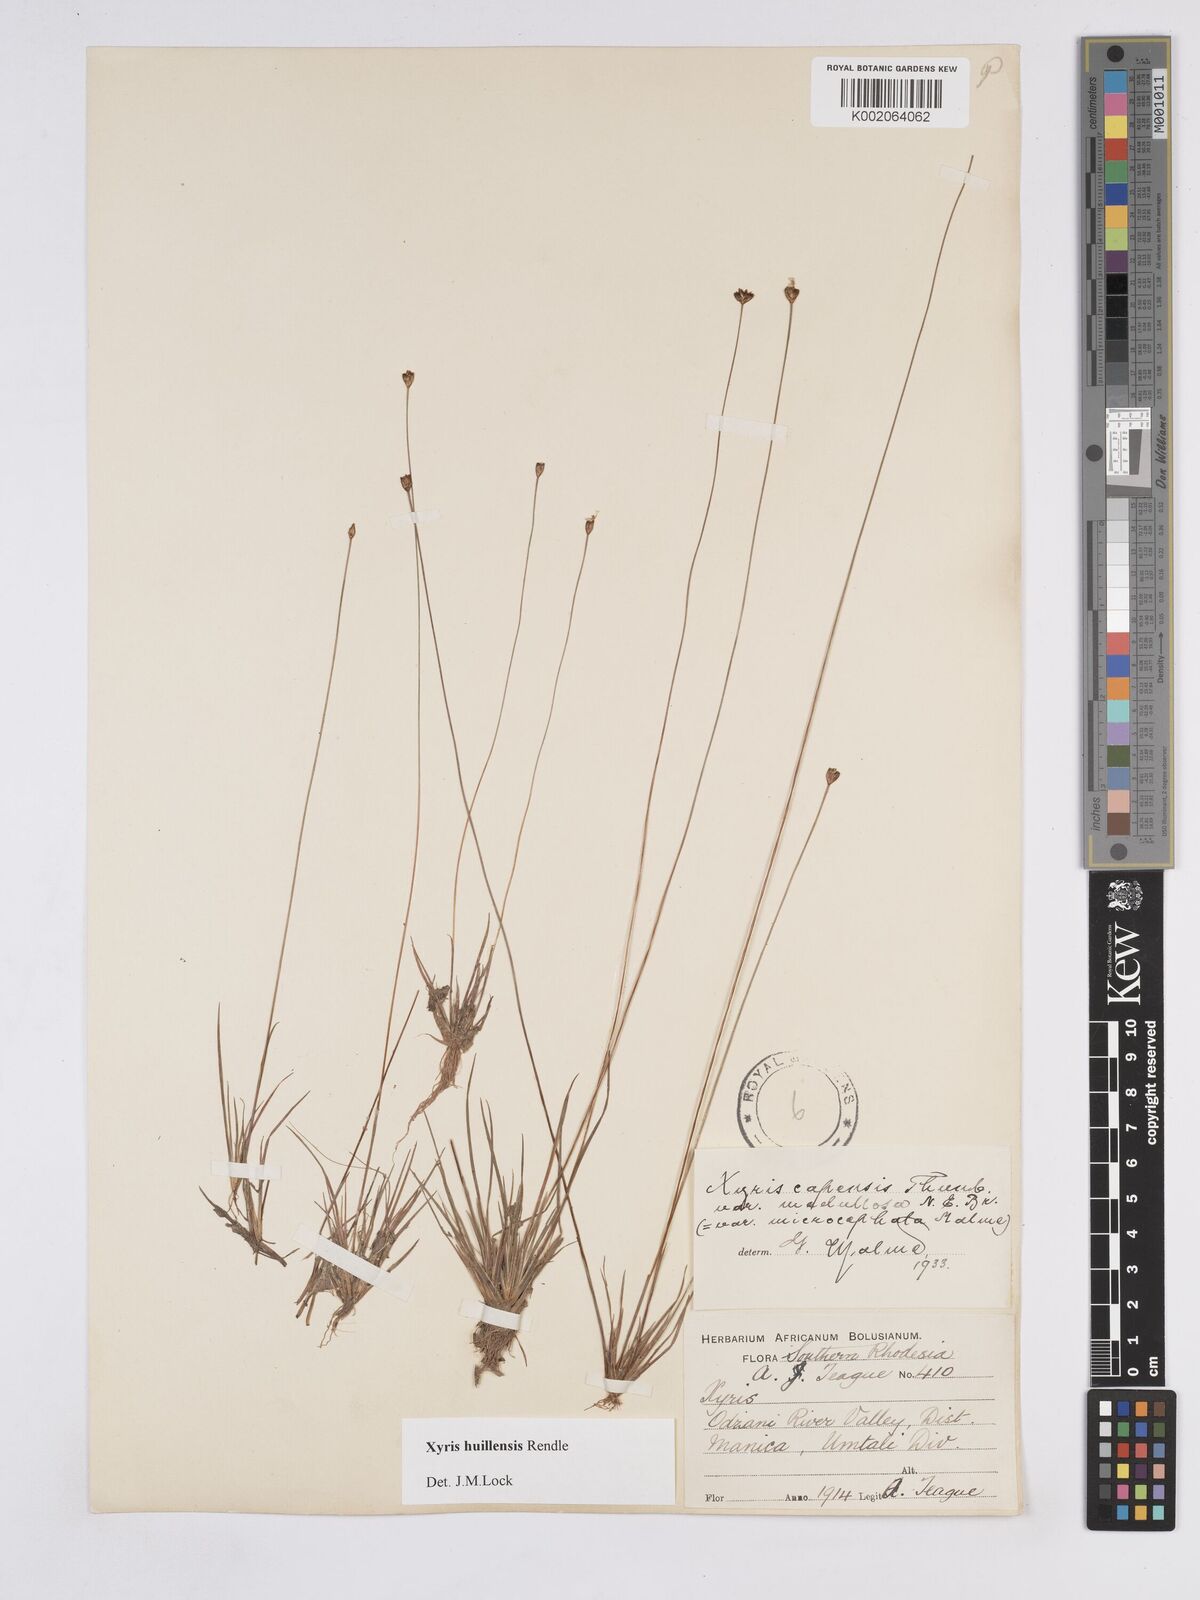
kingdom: Plantae
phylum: Tracheophyta
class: Liliopsida
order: Poales
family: Xyridaceae
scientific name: Xyridaceae
